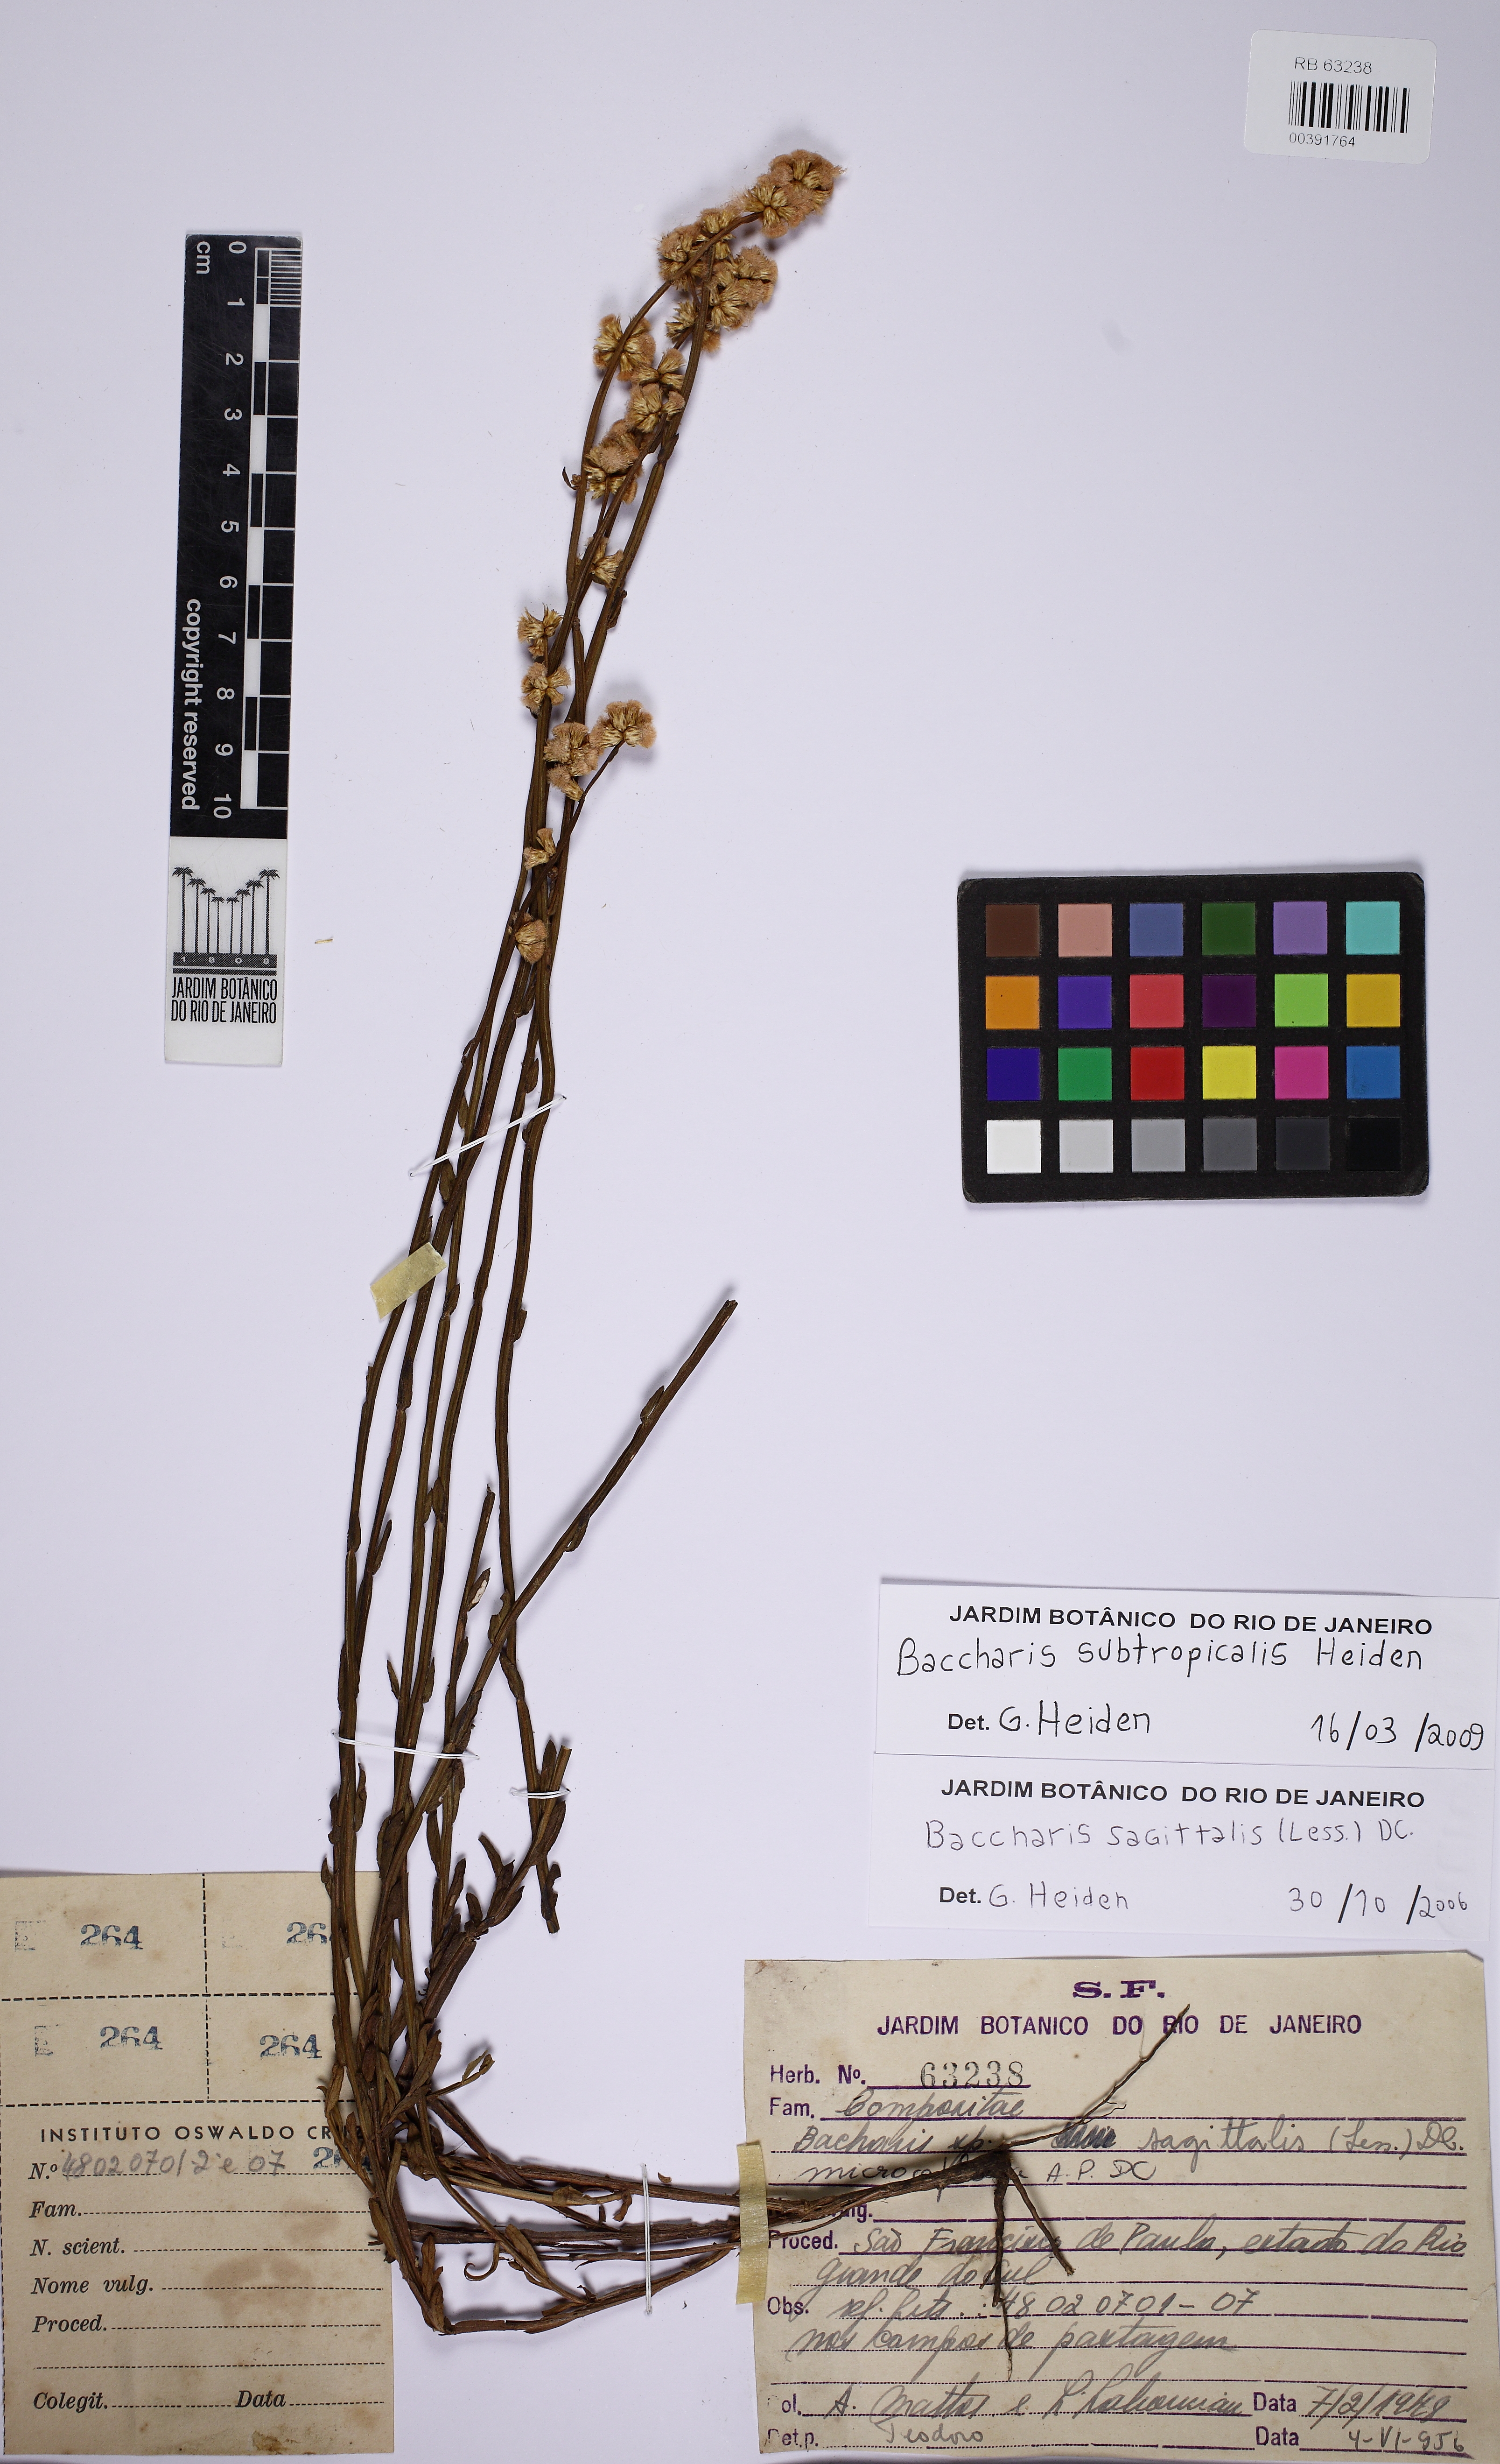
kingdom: Plantae
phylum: Tracheophyta
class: Magnoliopsida
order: Asterales
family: Asteraceae
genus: Baccharis
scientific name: Baccharis subtropicalis
